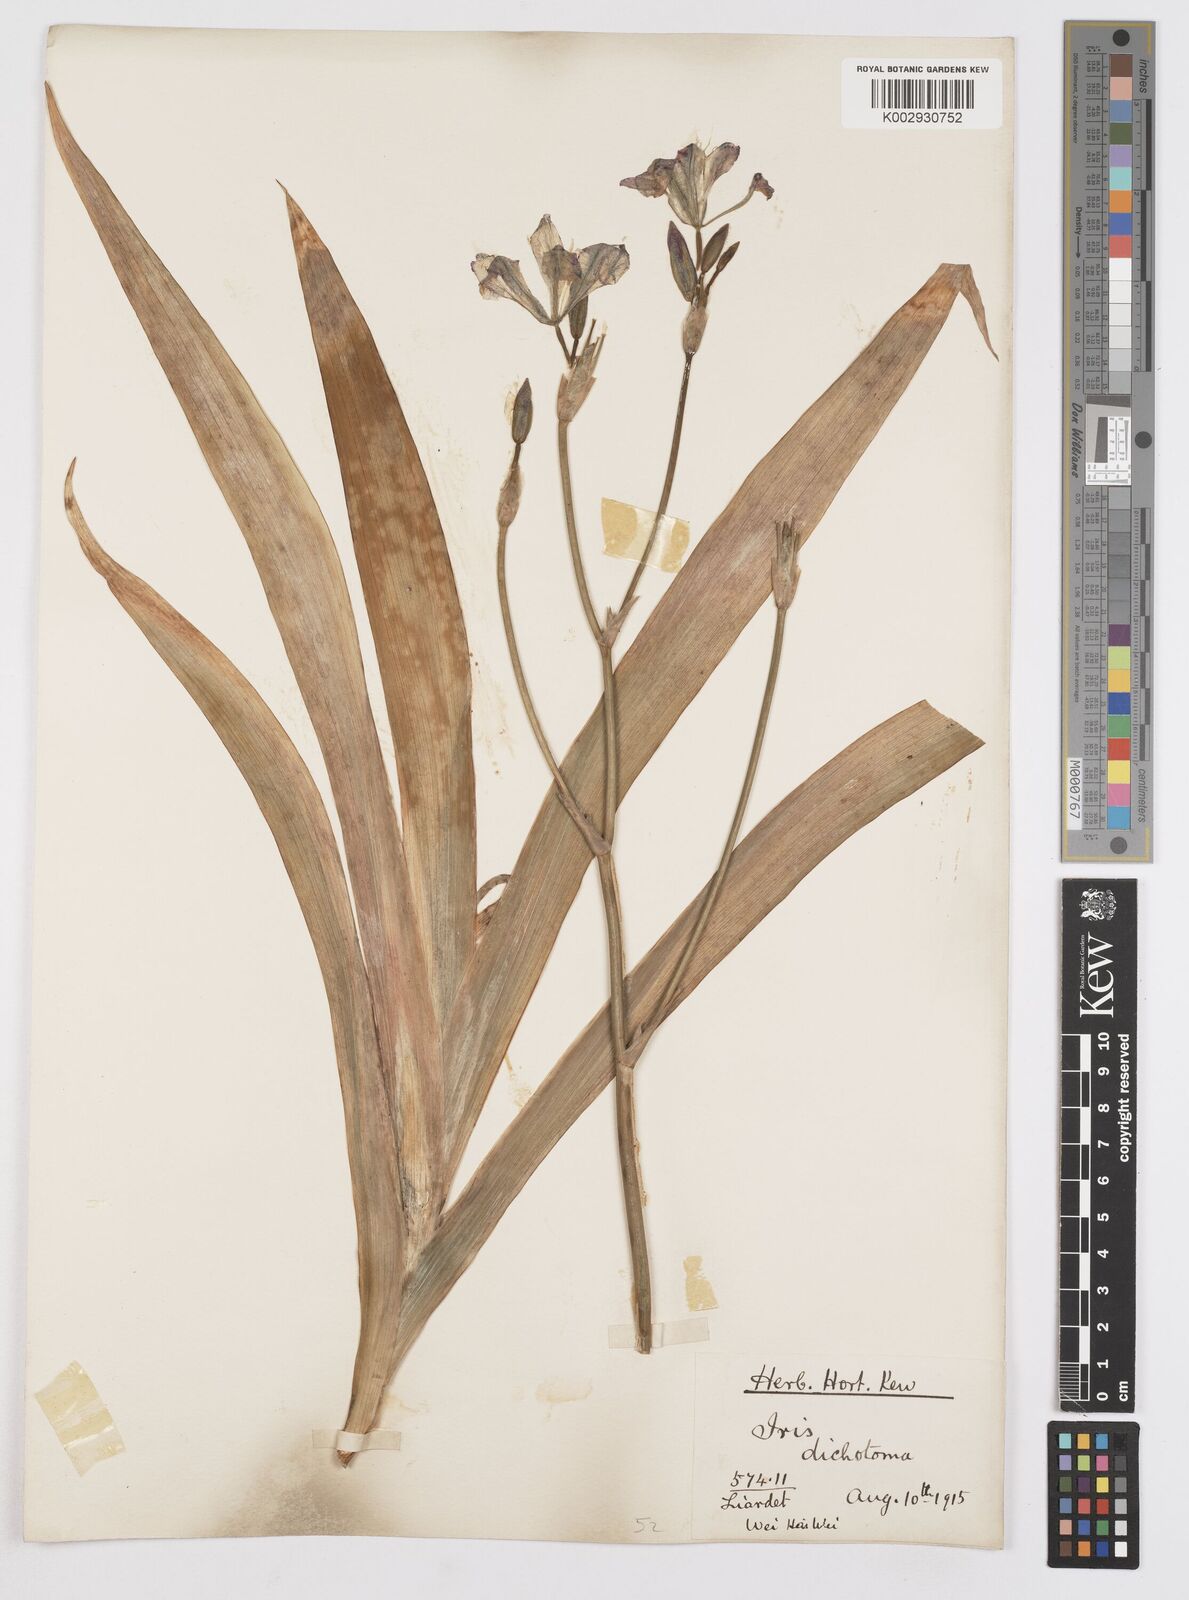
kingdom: Plantae
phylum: Tracheophyta
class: Liliopsida
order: Asparagales
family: Iridaceae
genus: Iris
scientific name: Iris dichotoma
